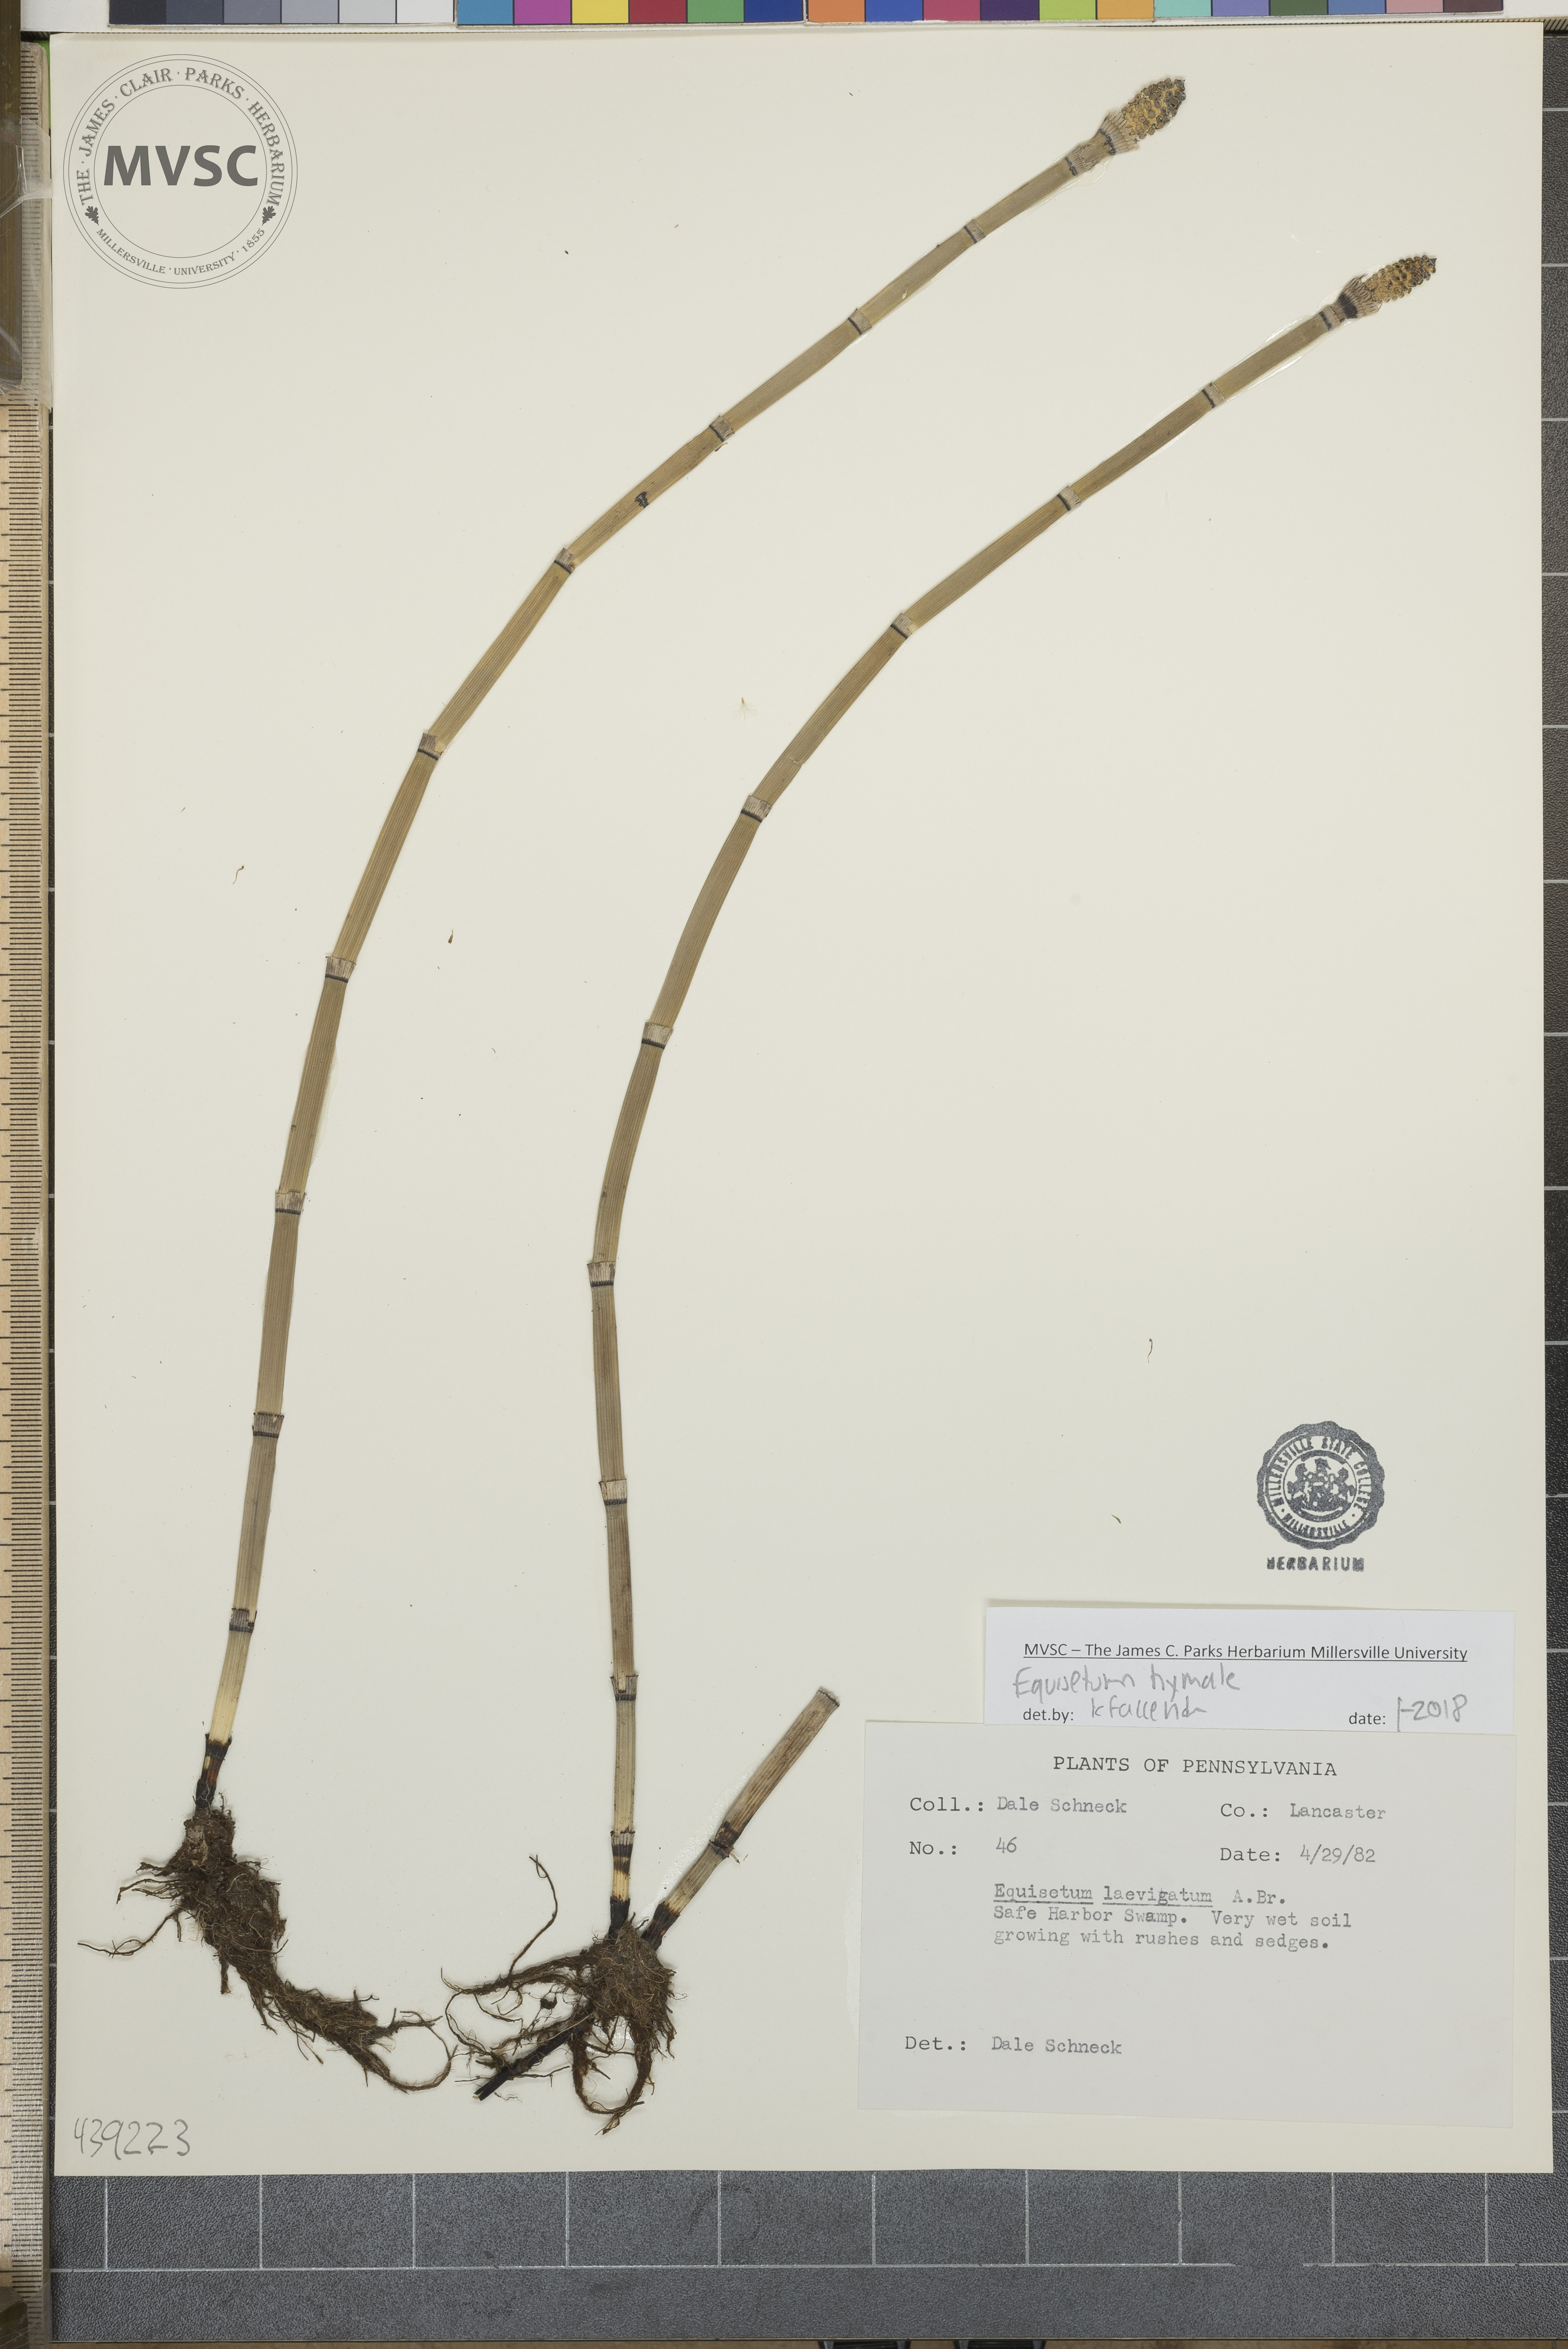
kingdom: Plantae
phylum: Tracheophyta
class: Polypodiopsida
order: Equisetales
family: Equisetaceae
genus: Equisetum
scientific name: Equisetum hyemale
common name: Scouring rush
